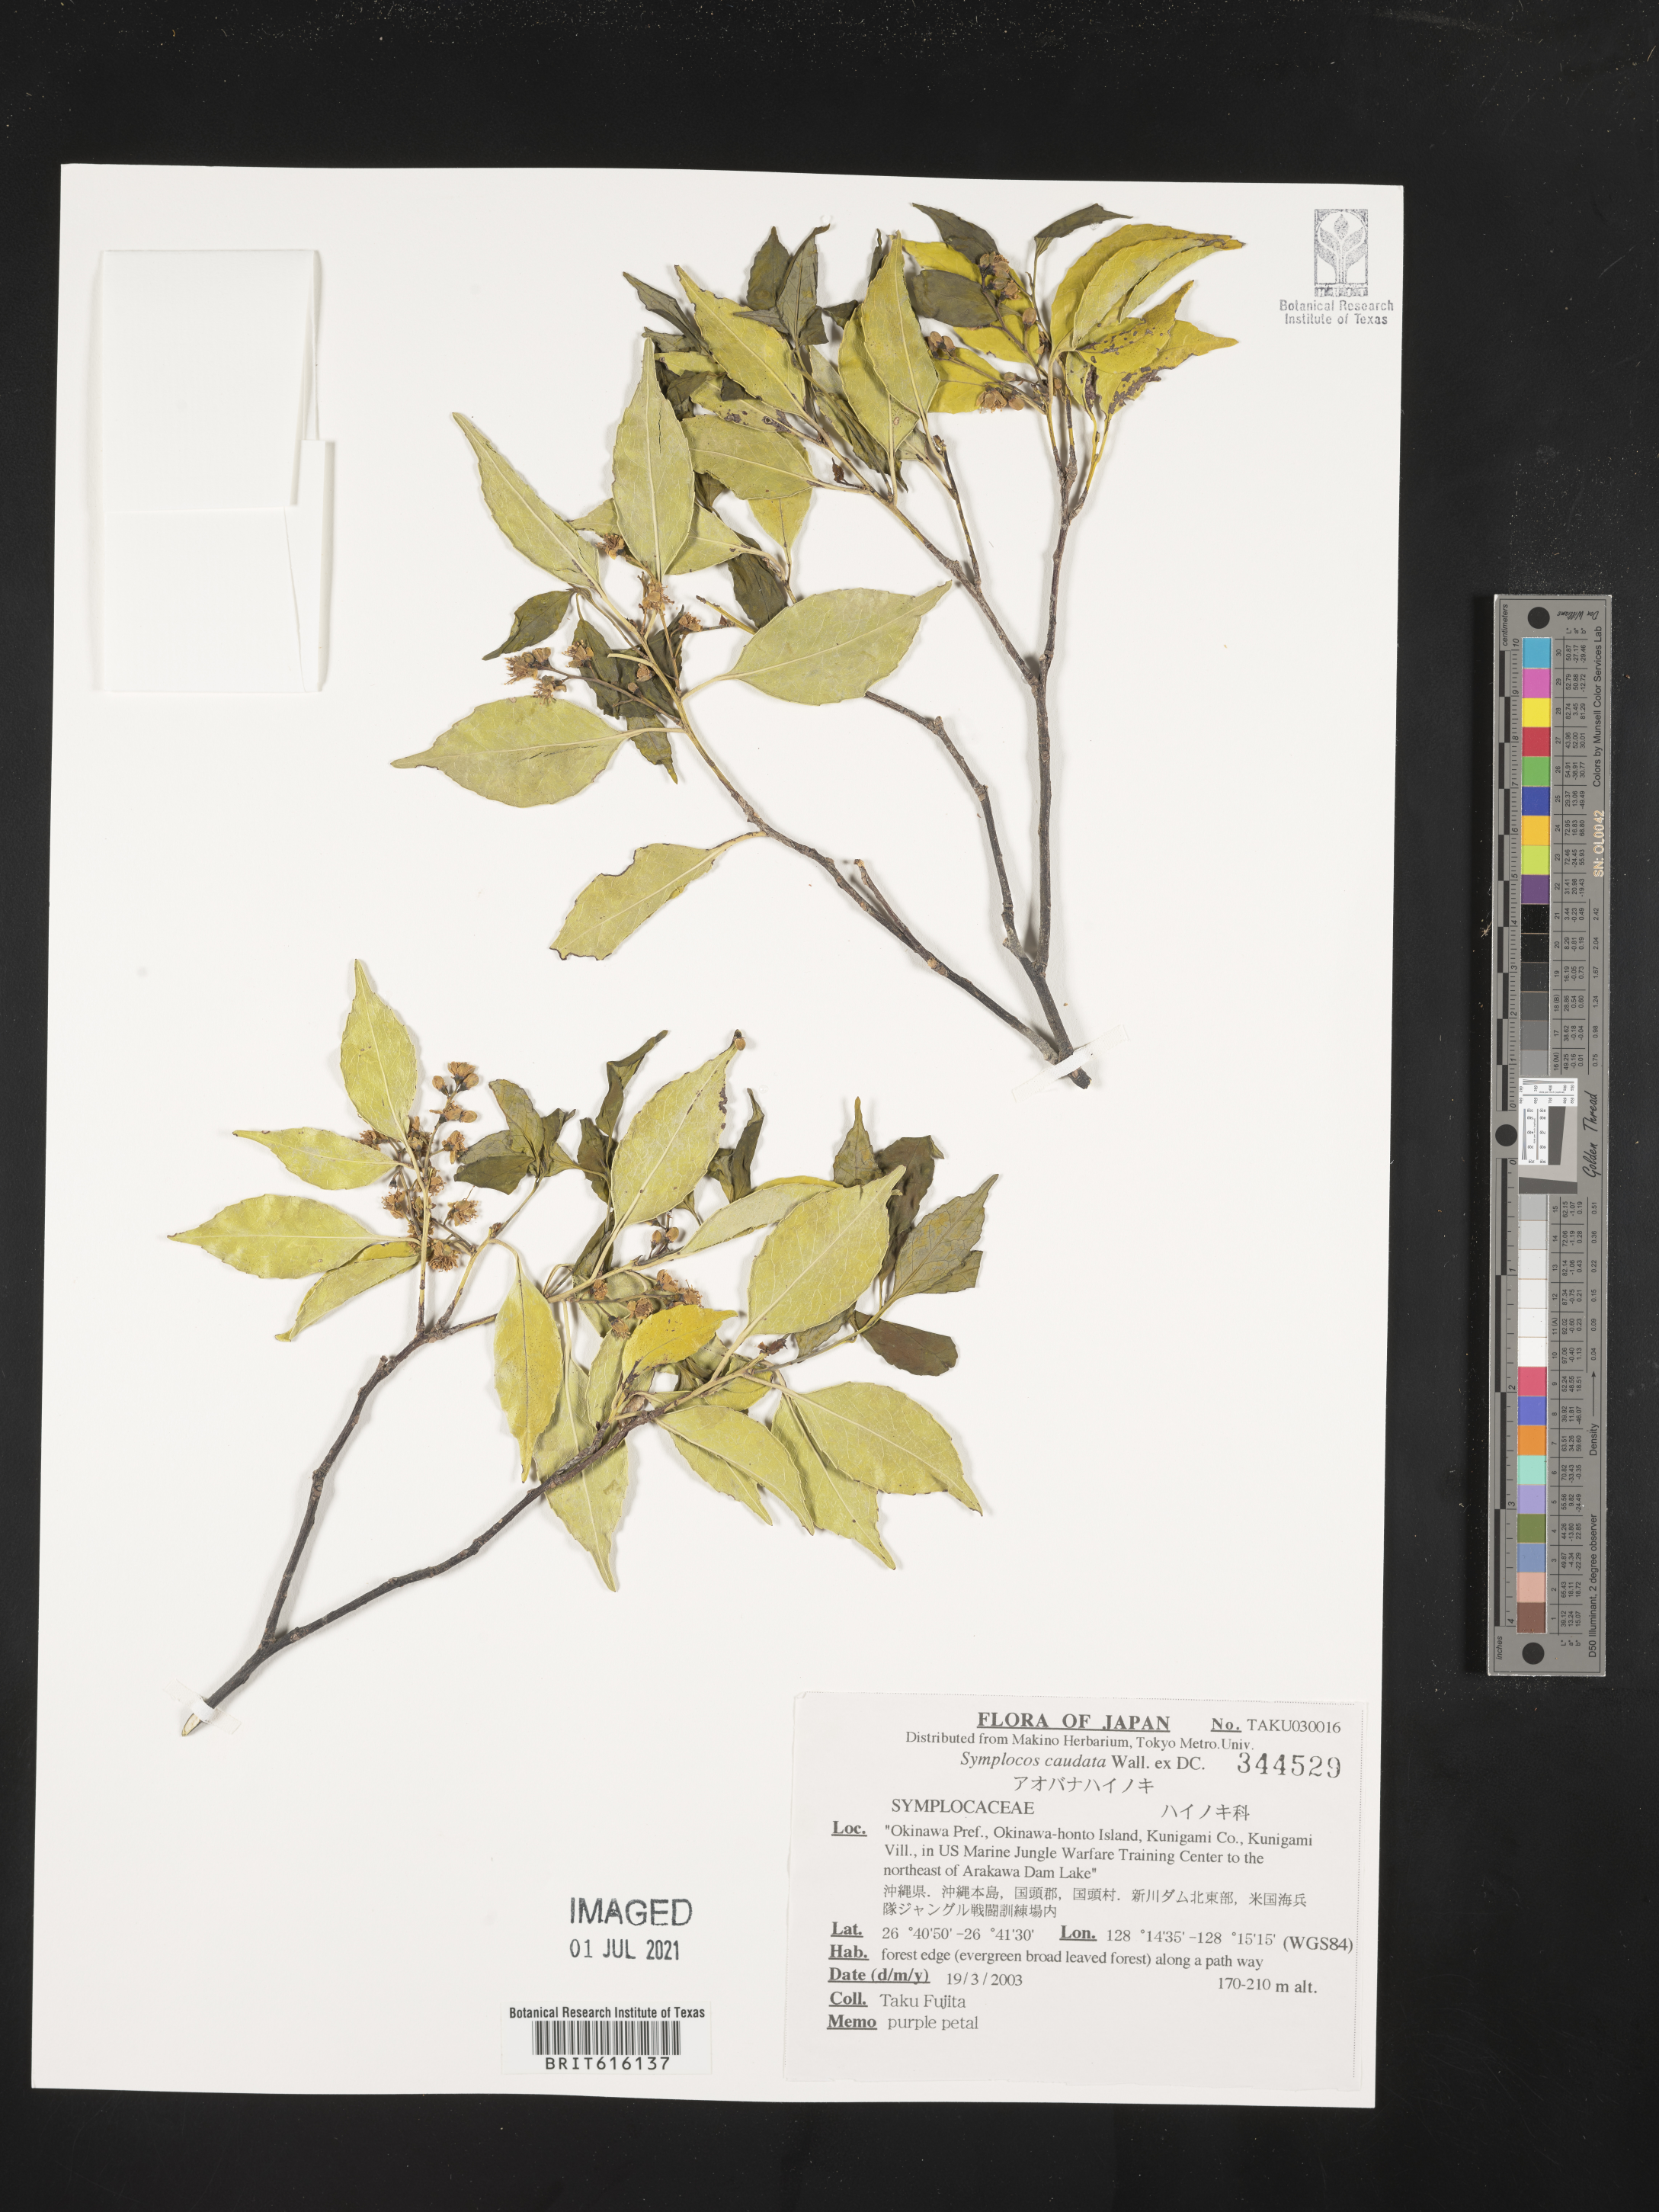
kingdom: Plantae
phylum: Tracheophyta
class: Magnoliopsida
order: Ericales
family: Symplocaceae
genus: Symplocos
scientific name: Symplocos caudata
